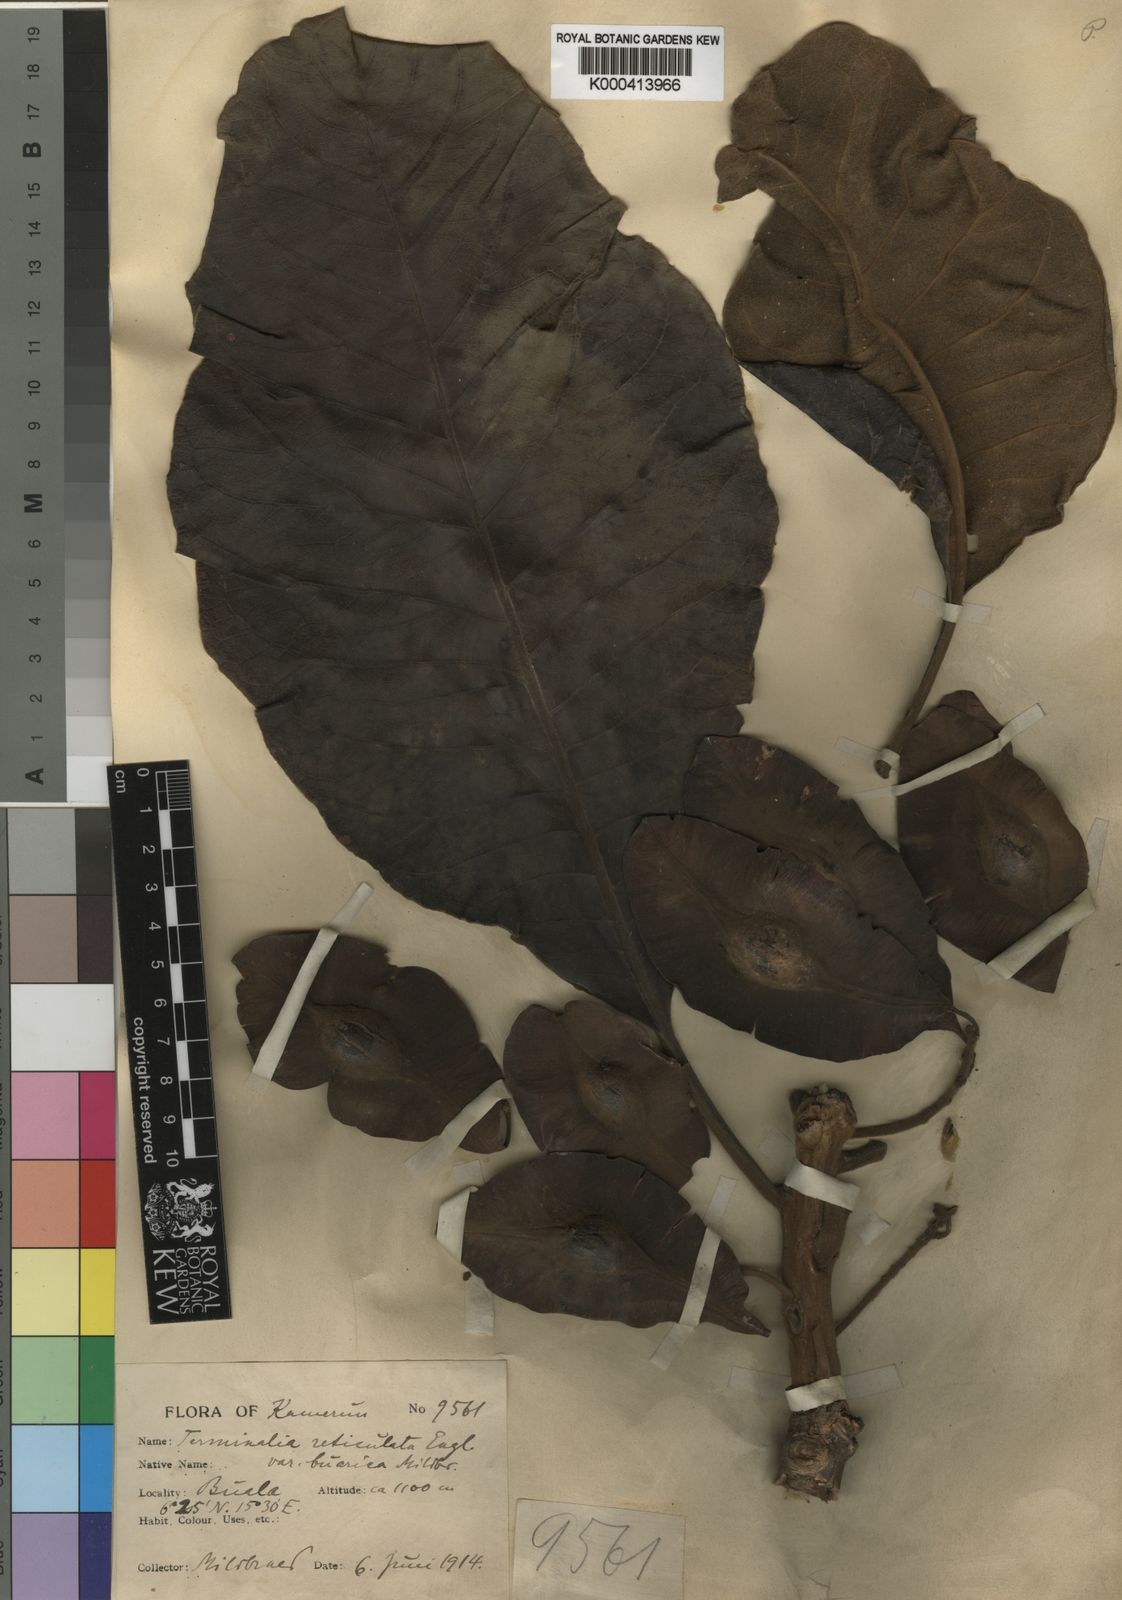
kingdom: Plantae
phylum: Tracheophyta
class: Magnoliopsida
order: Myrtales
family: Combretaceae
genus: Terminalia
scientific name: Terminalia mollis
